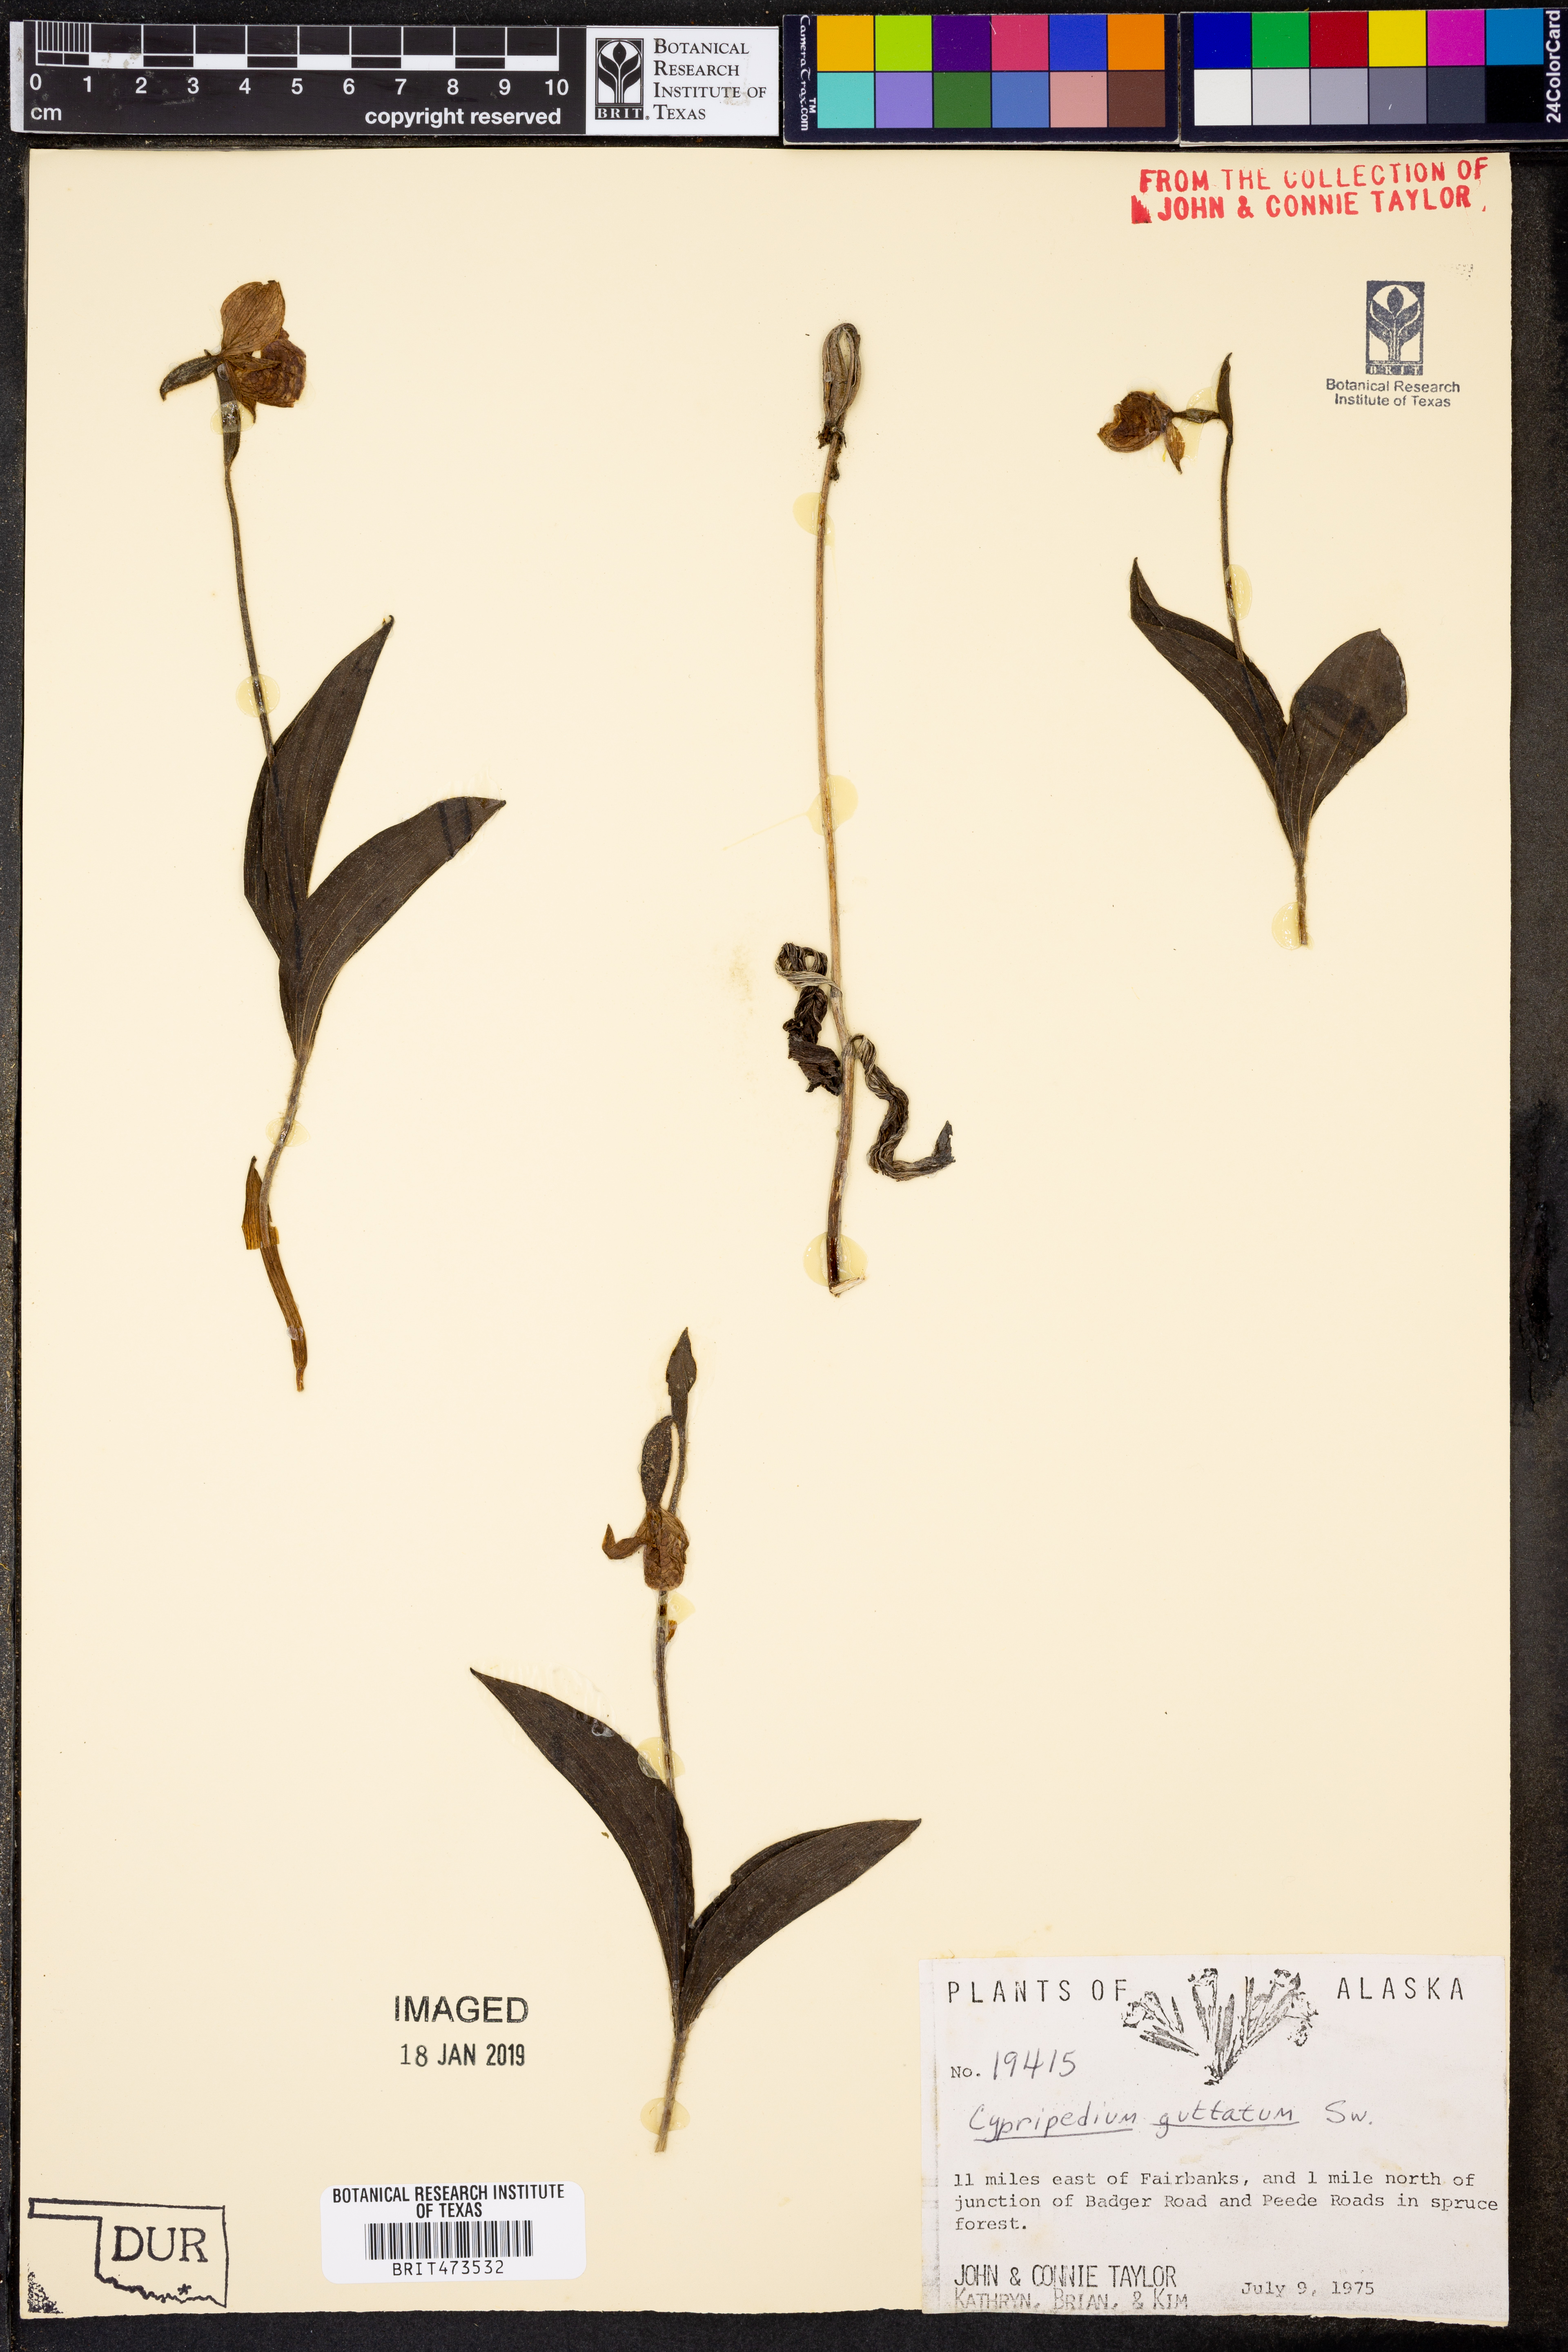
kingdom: Plantae
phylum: Tracheophyta
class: Liliopsida
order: Asparagales
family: Orchidaceae
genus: Cypripedium
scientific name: Cypripedium guttatum
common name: Pink lady slipper
